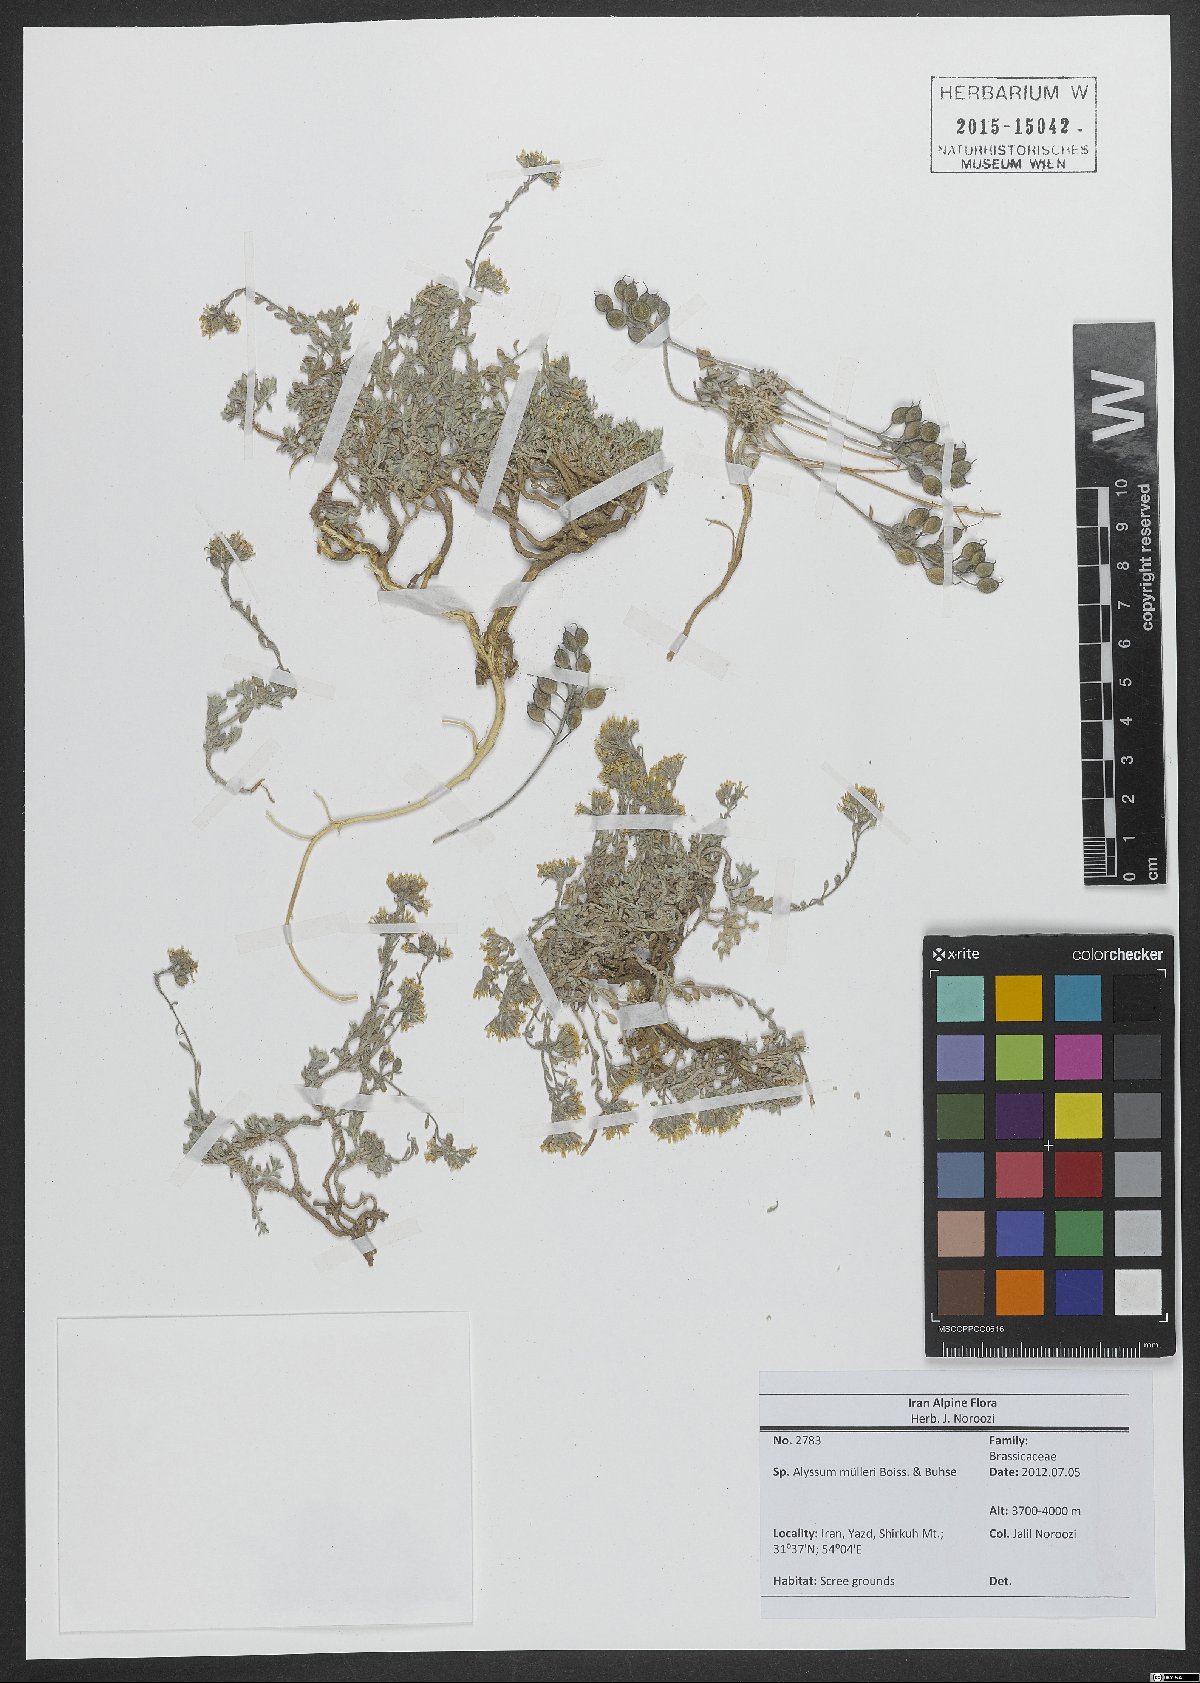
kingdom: Plantae
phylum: Tracheophyta
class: Magnoliopsida
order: Brassicales
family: Brassicaceae
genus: Alyssum
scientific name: Alyssum muelleri
